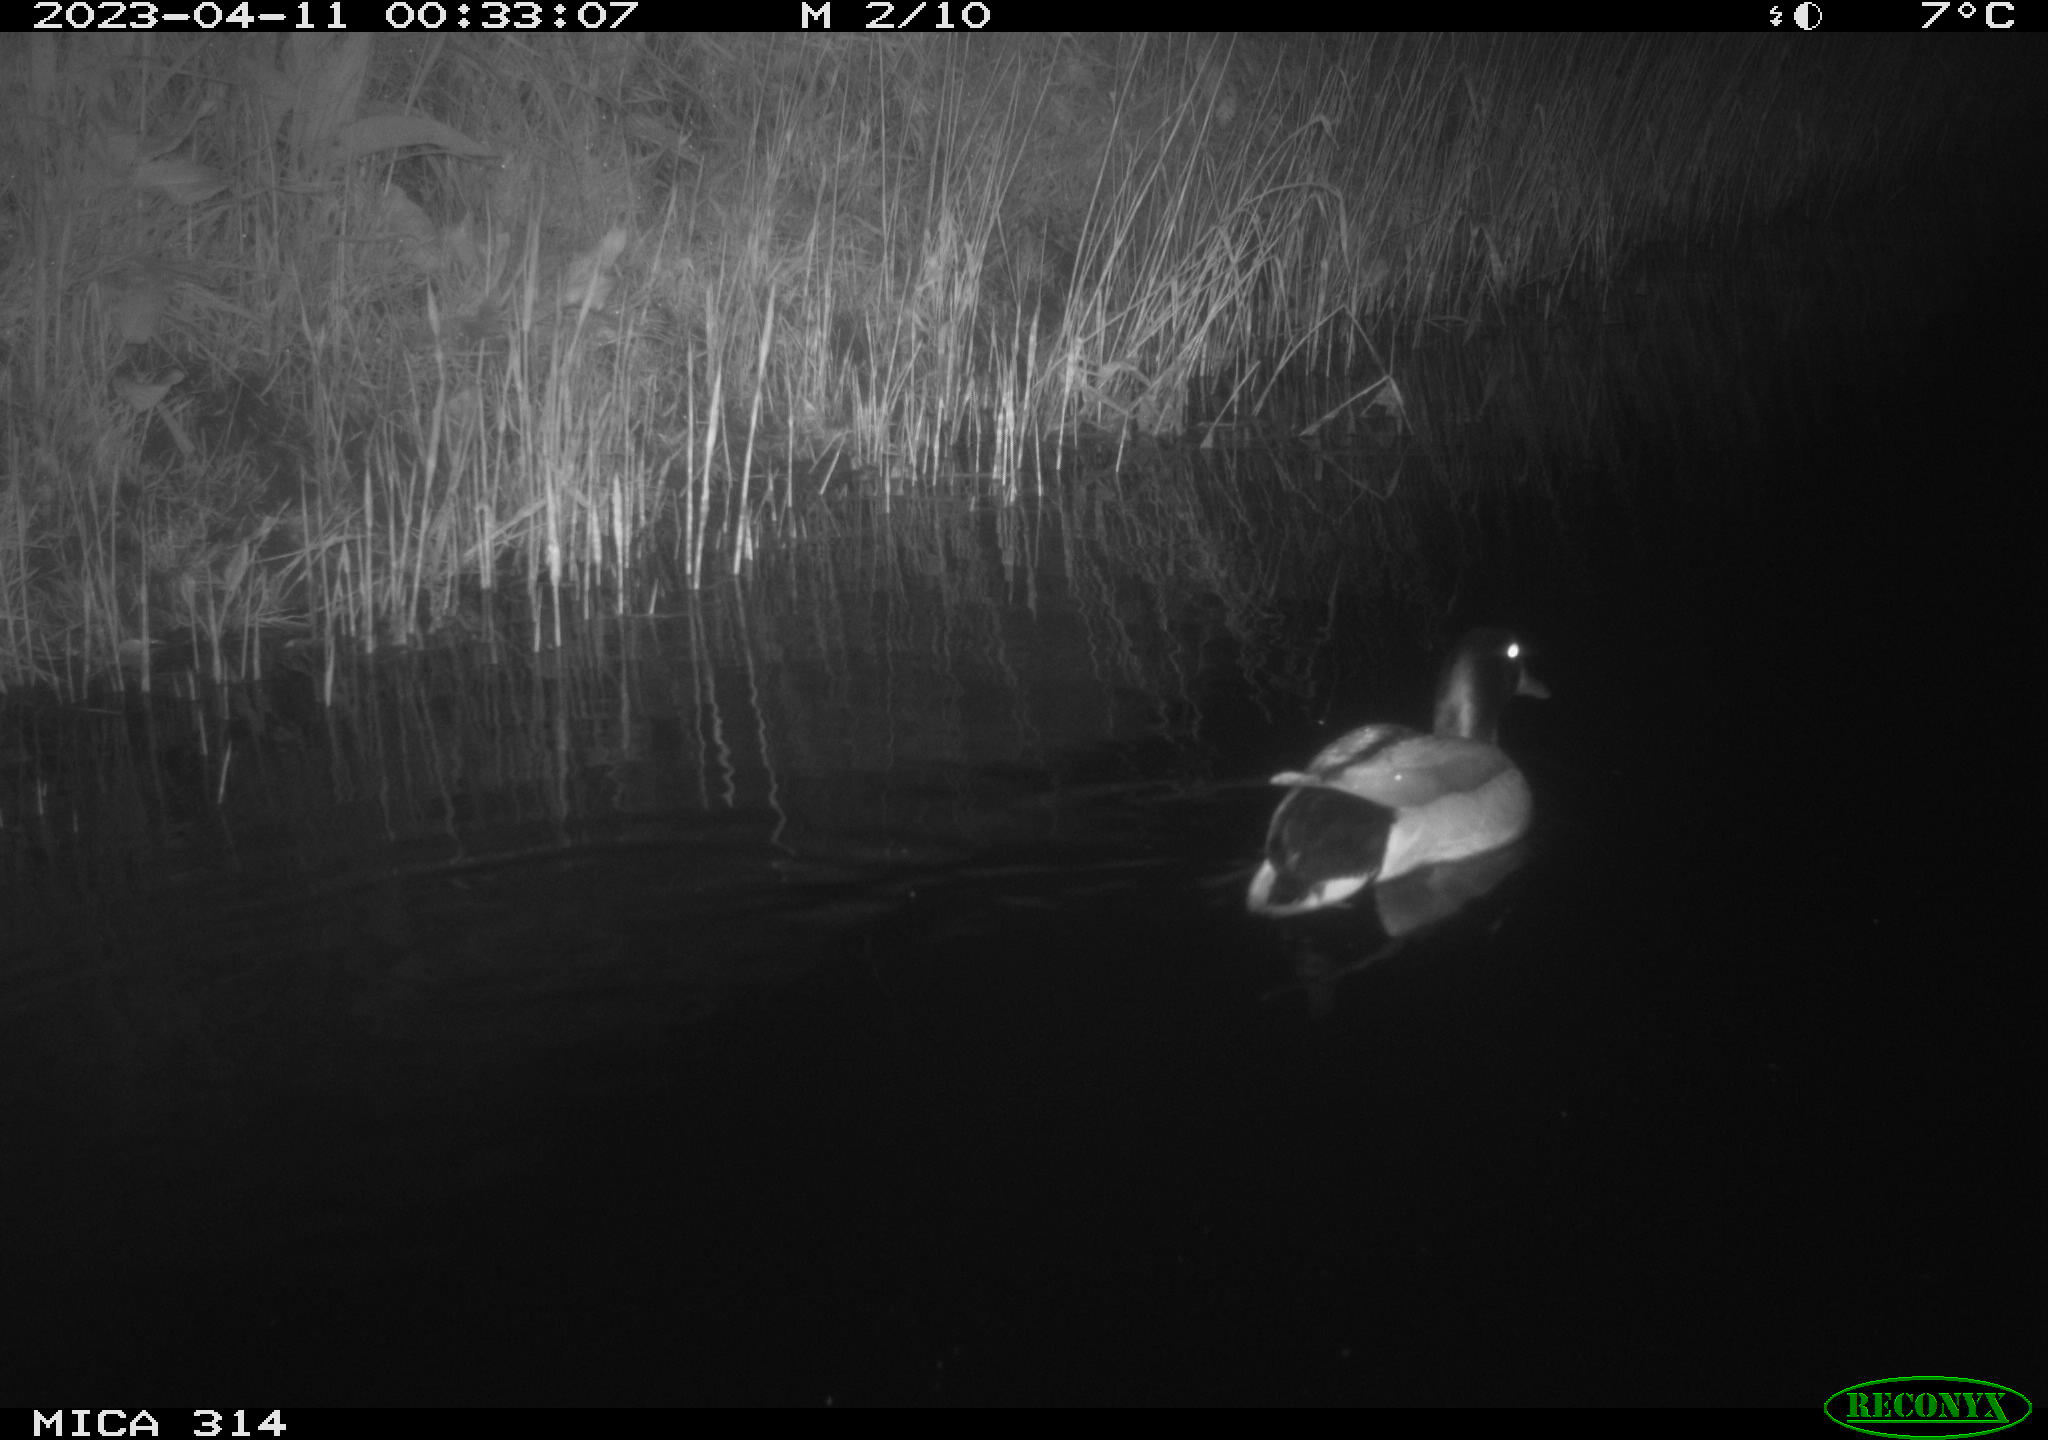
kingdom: Animalia
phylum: Chordata
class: Aves
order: Anseriformes
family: Anatidae
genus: Anas
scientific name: Anas
